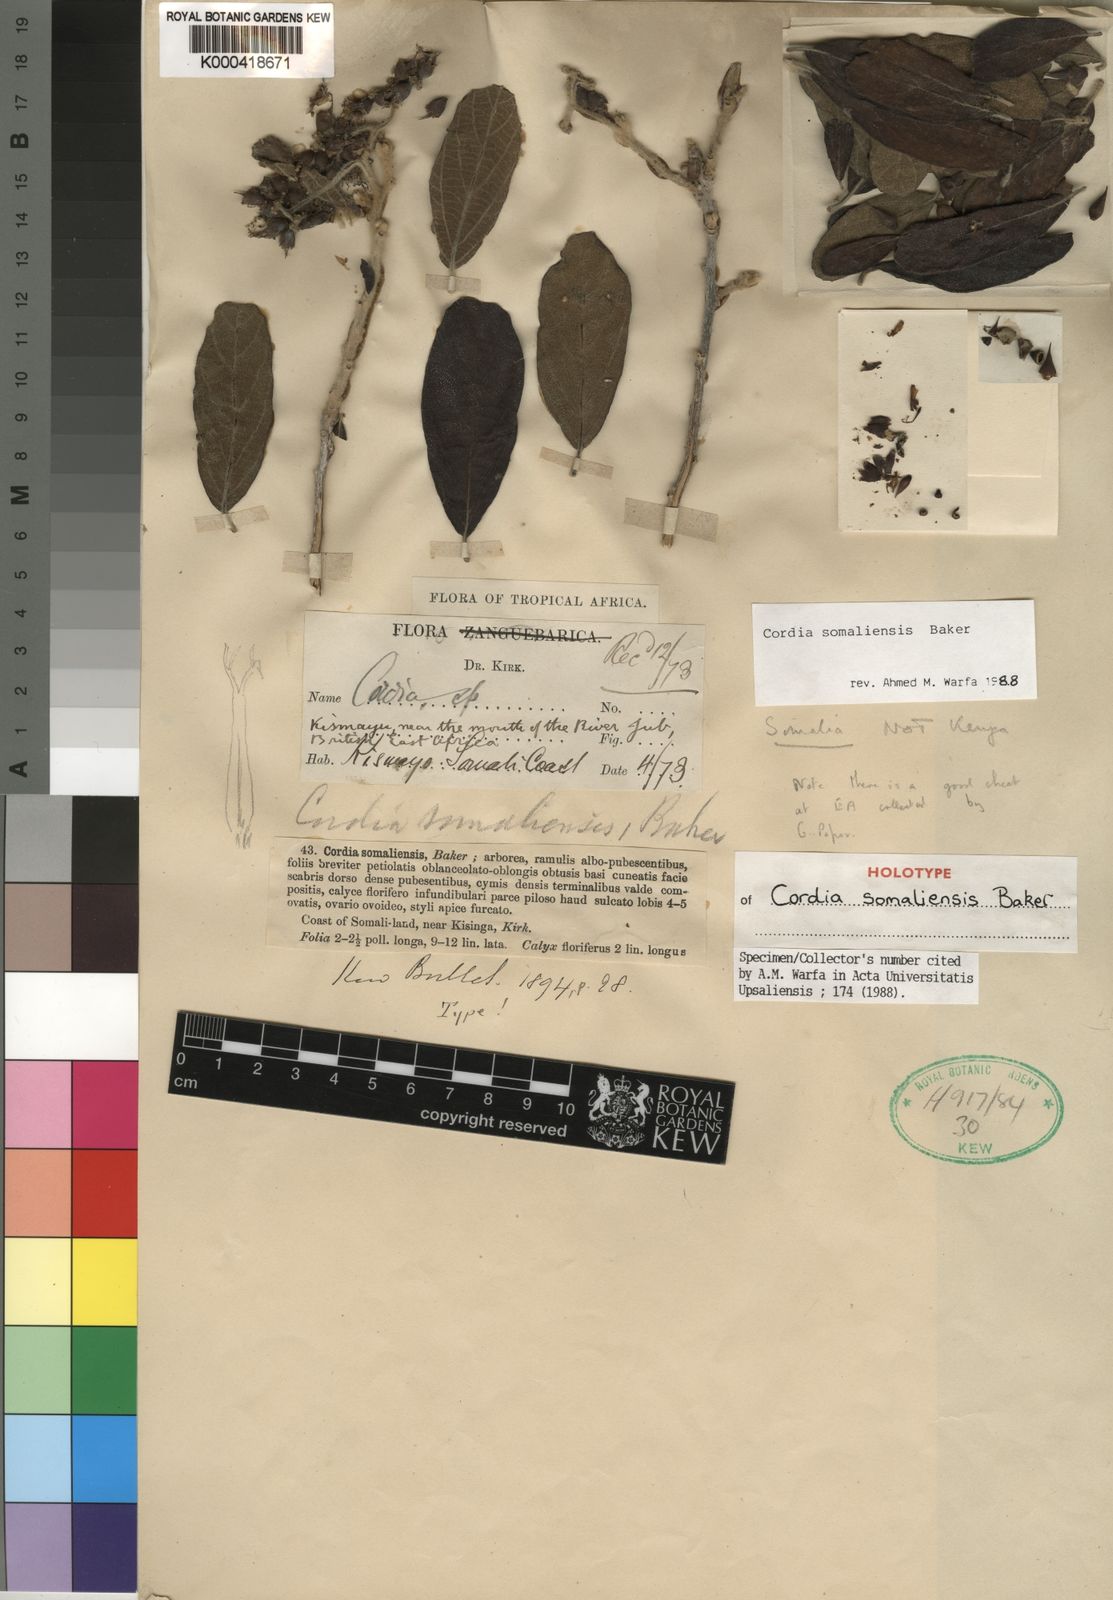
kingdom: Plantae
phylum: Tracheophyta
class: Magnoliopsida
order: Boraginales
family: Cordiaceae
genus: Cordia
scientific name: Cordia somaliensis
